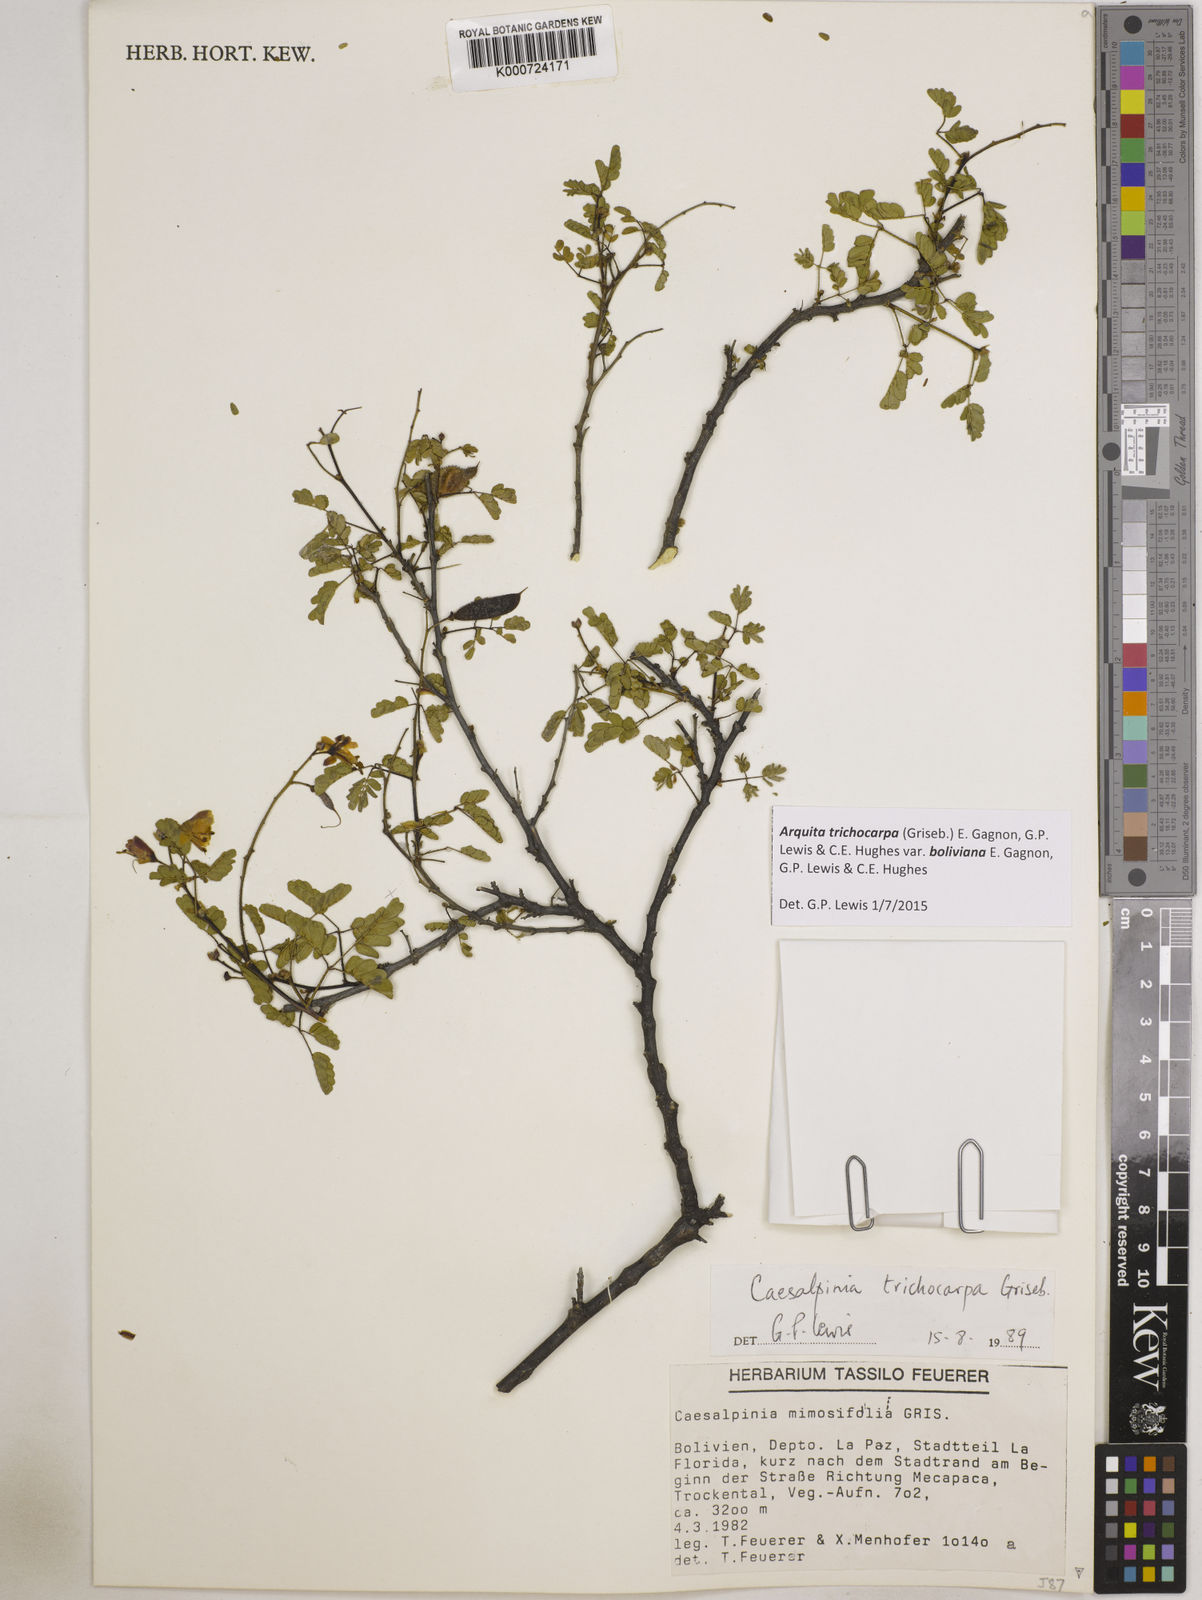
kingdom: Plantae
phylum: Tracheophyta
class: Magnoliopsida
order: Fabales
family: Fabaceae
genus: Arquita
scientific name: Arquita trichocarpa
